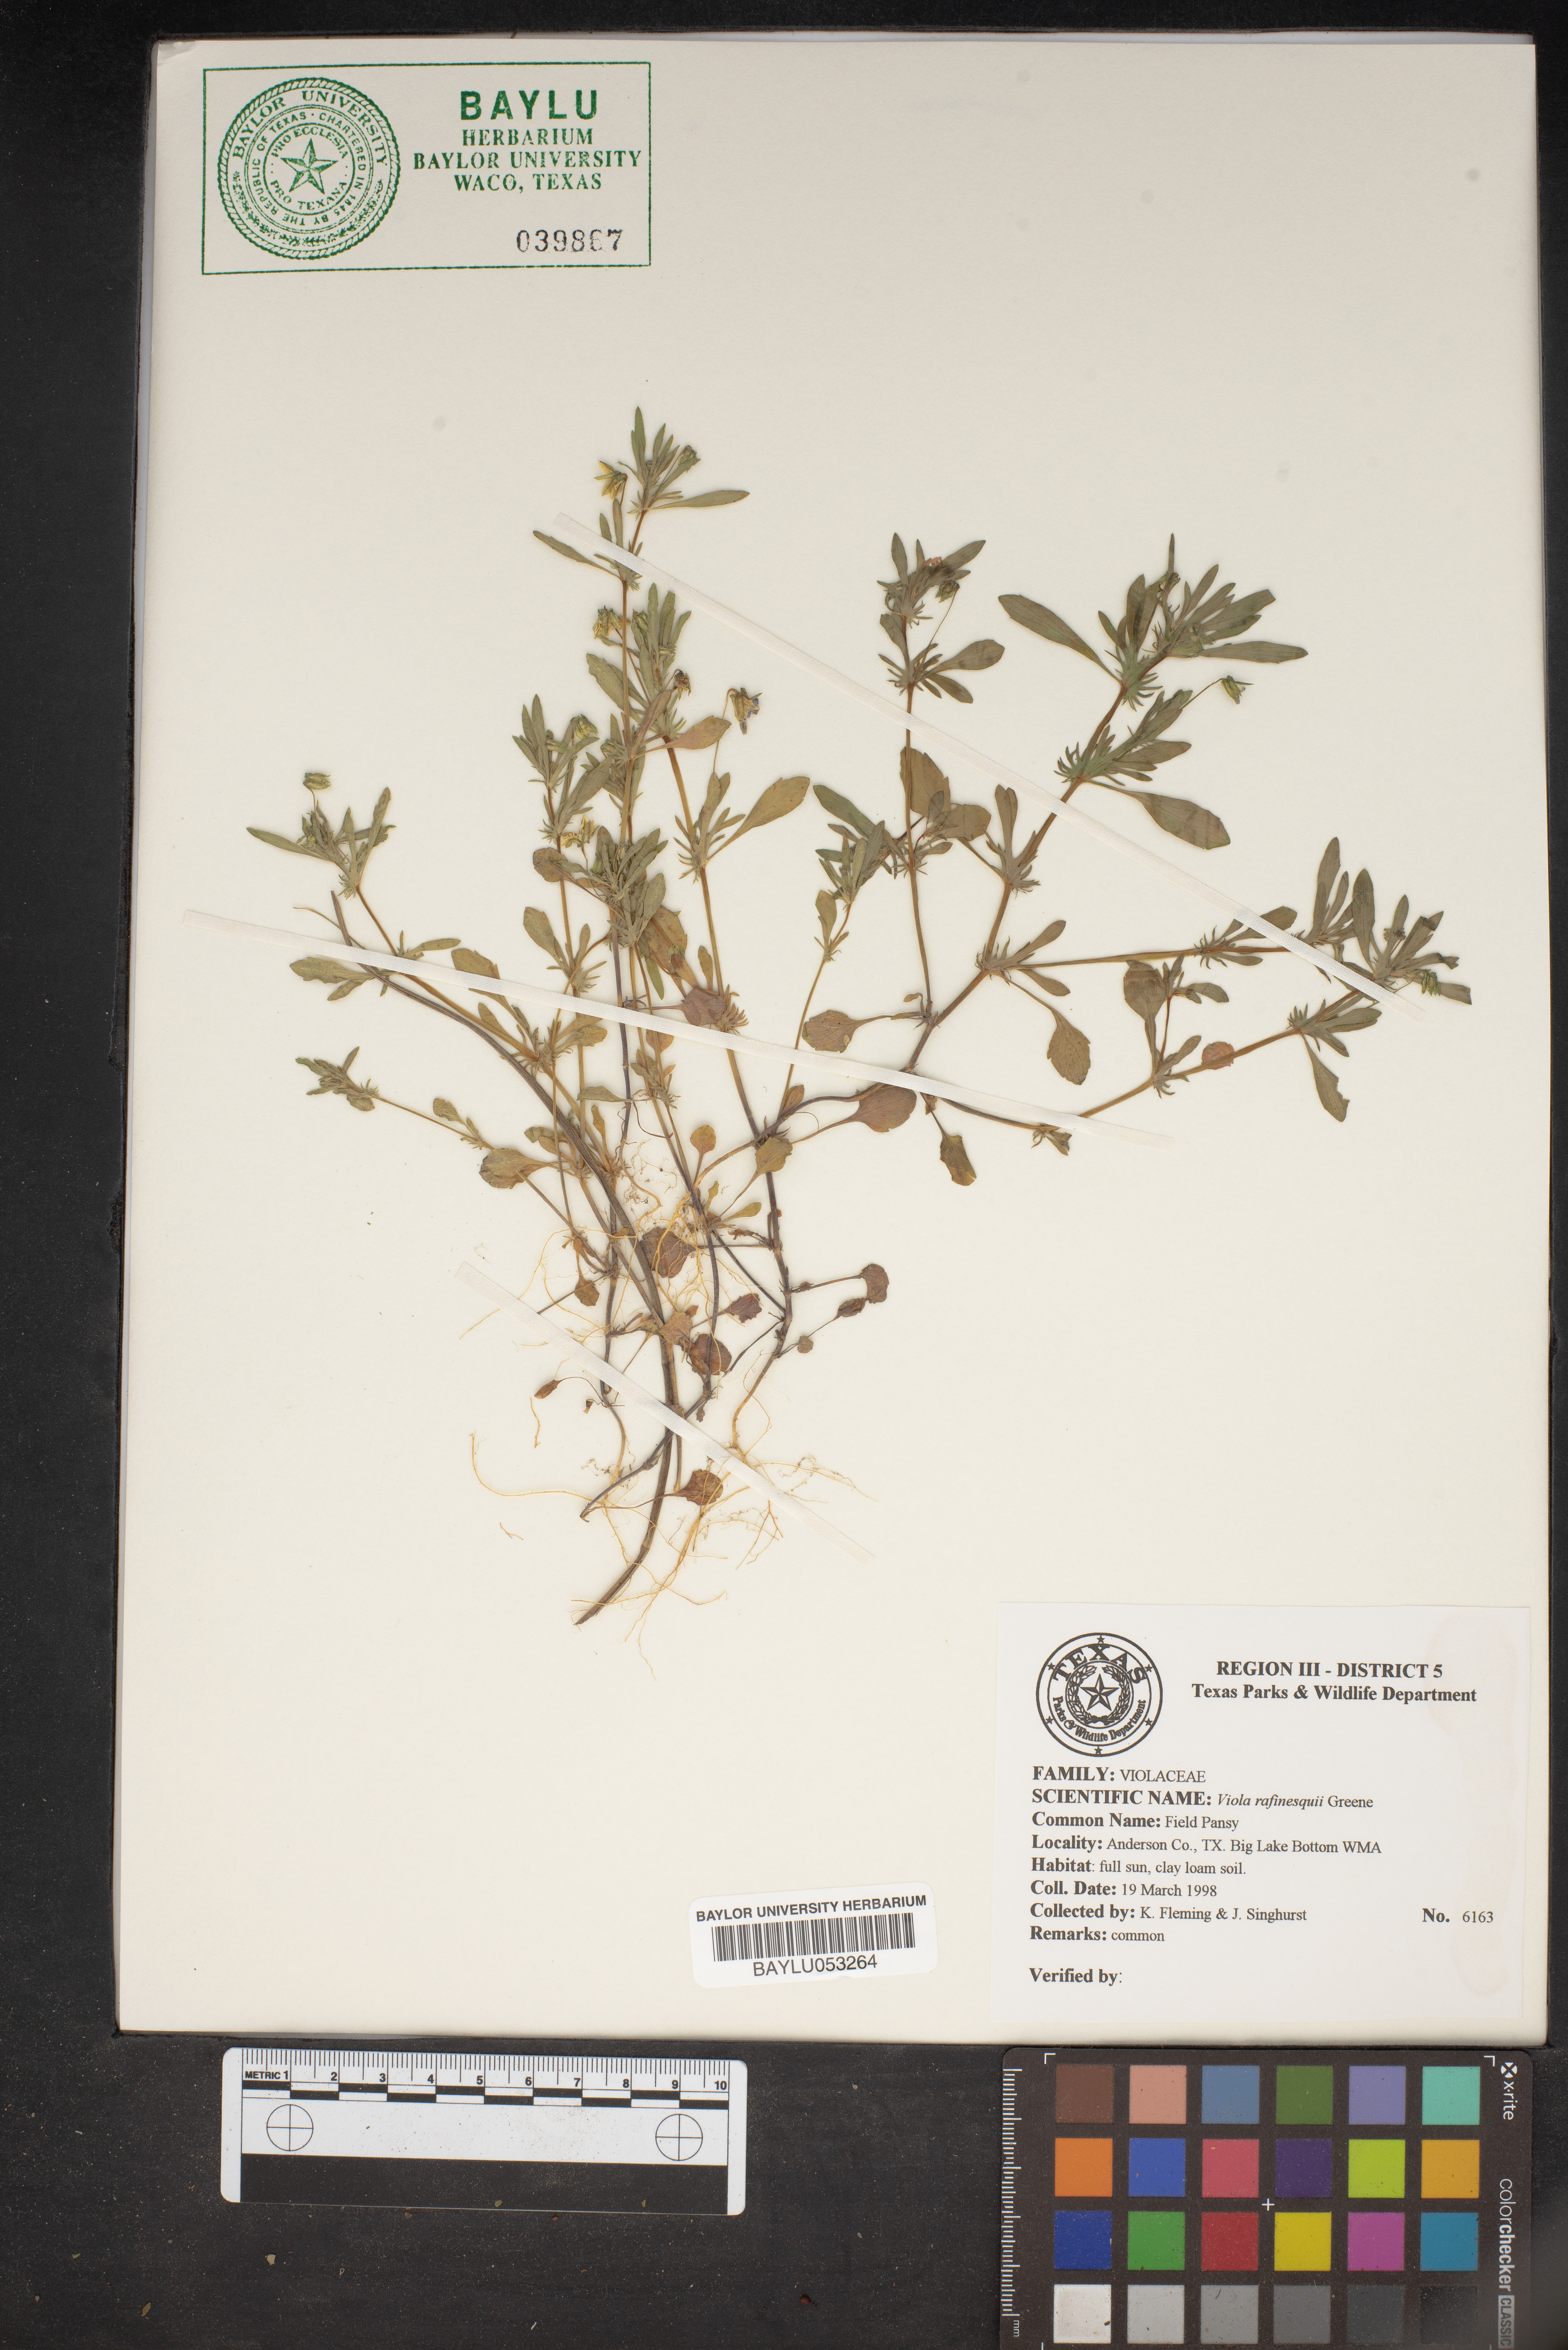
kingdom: Plantae
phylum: Tracheophyta
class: Magnoliopsida
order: Malpighiales
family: Violaceae
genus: Viola
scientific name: Viola rafinesquei
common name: American field pansy
